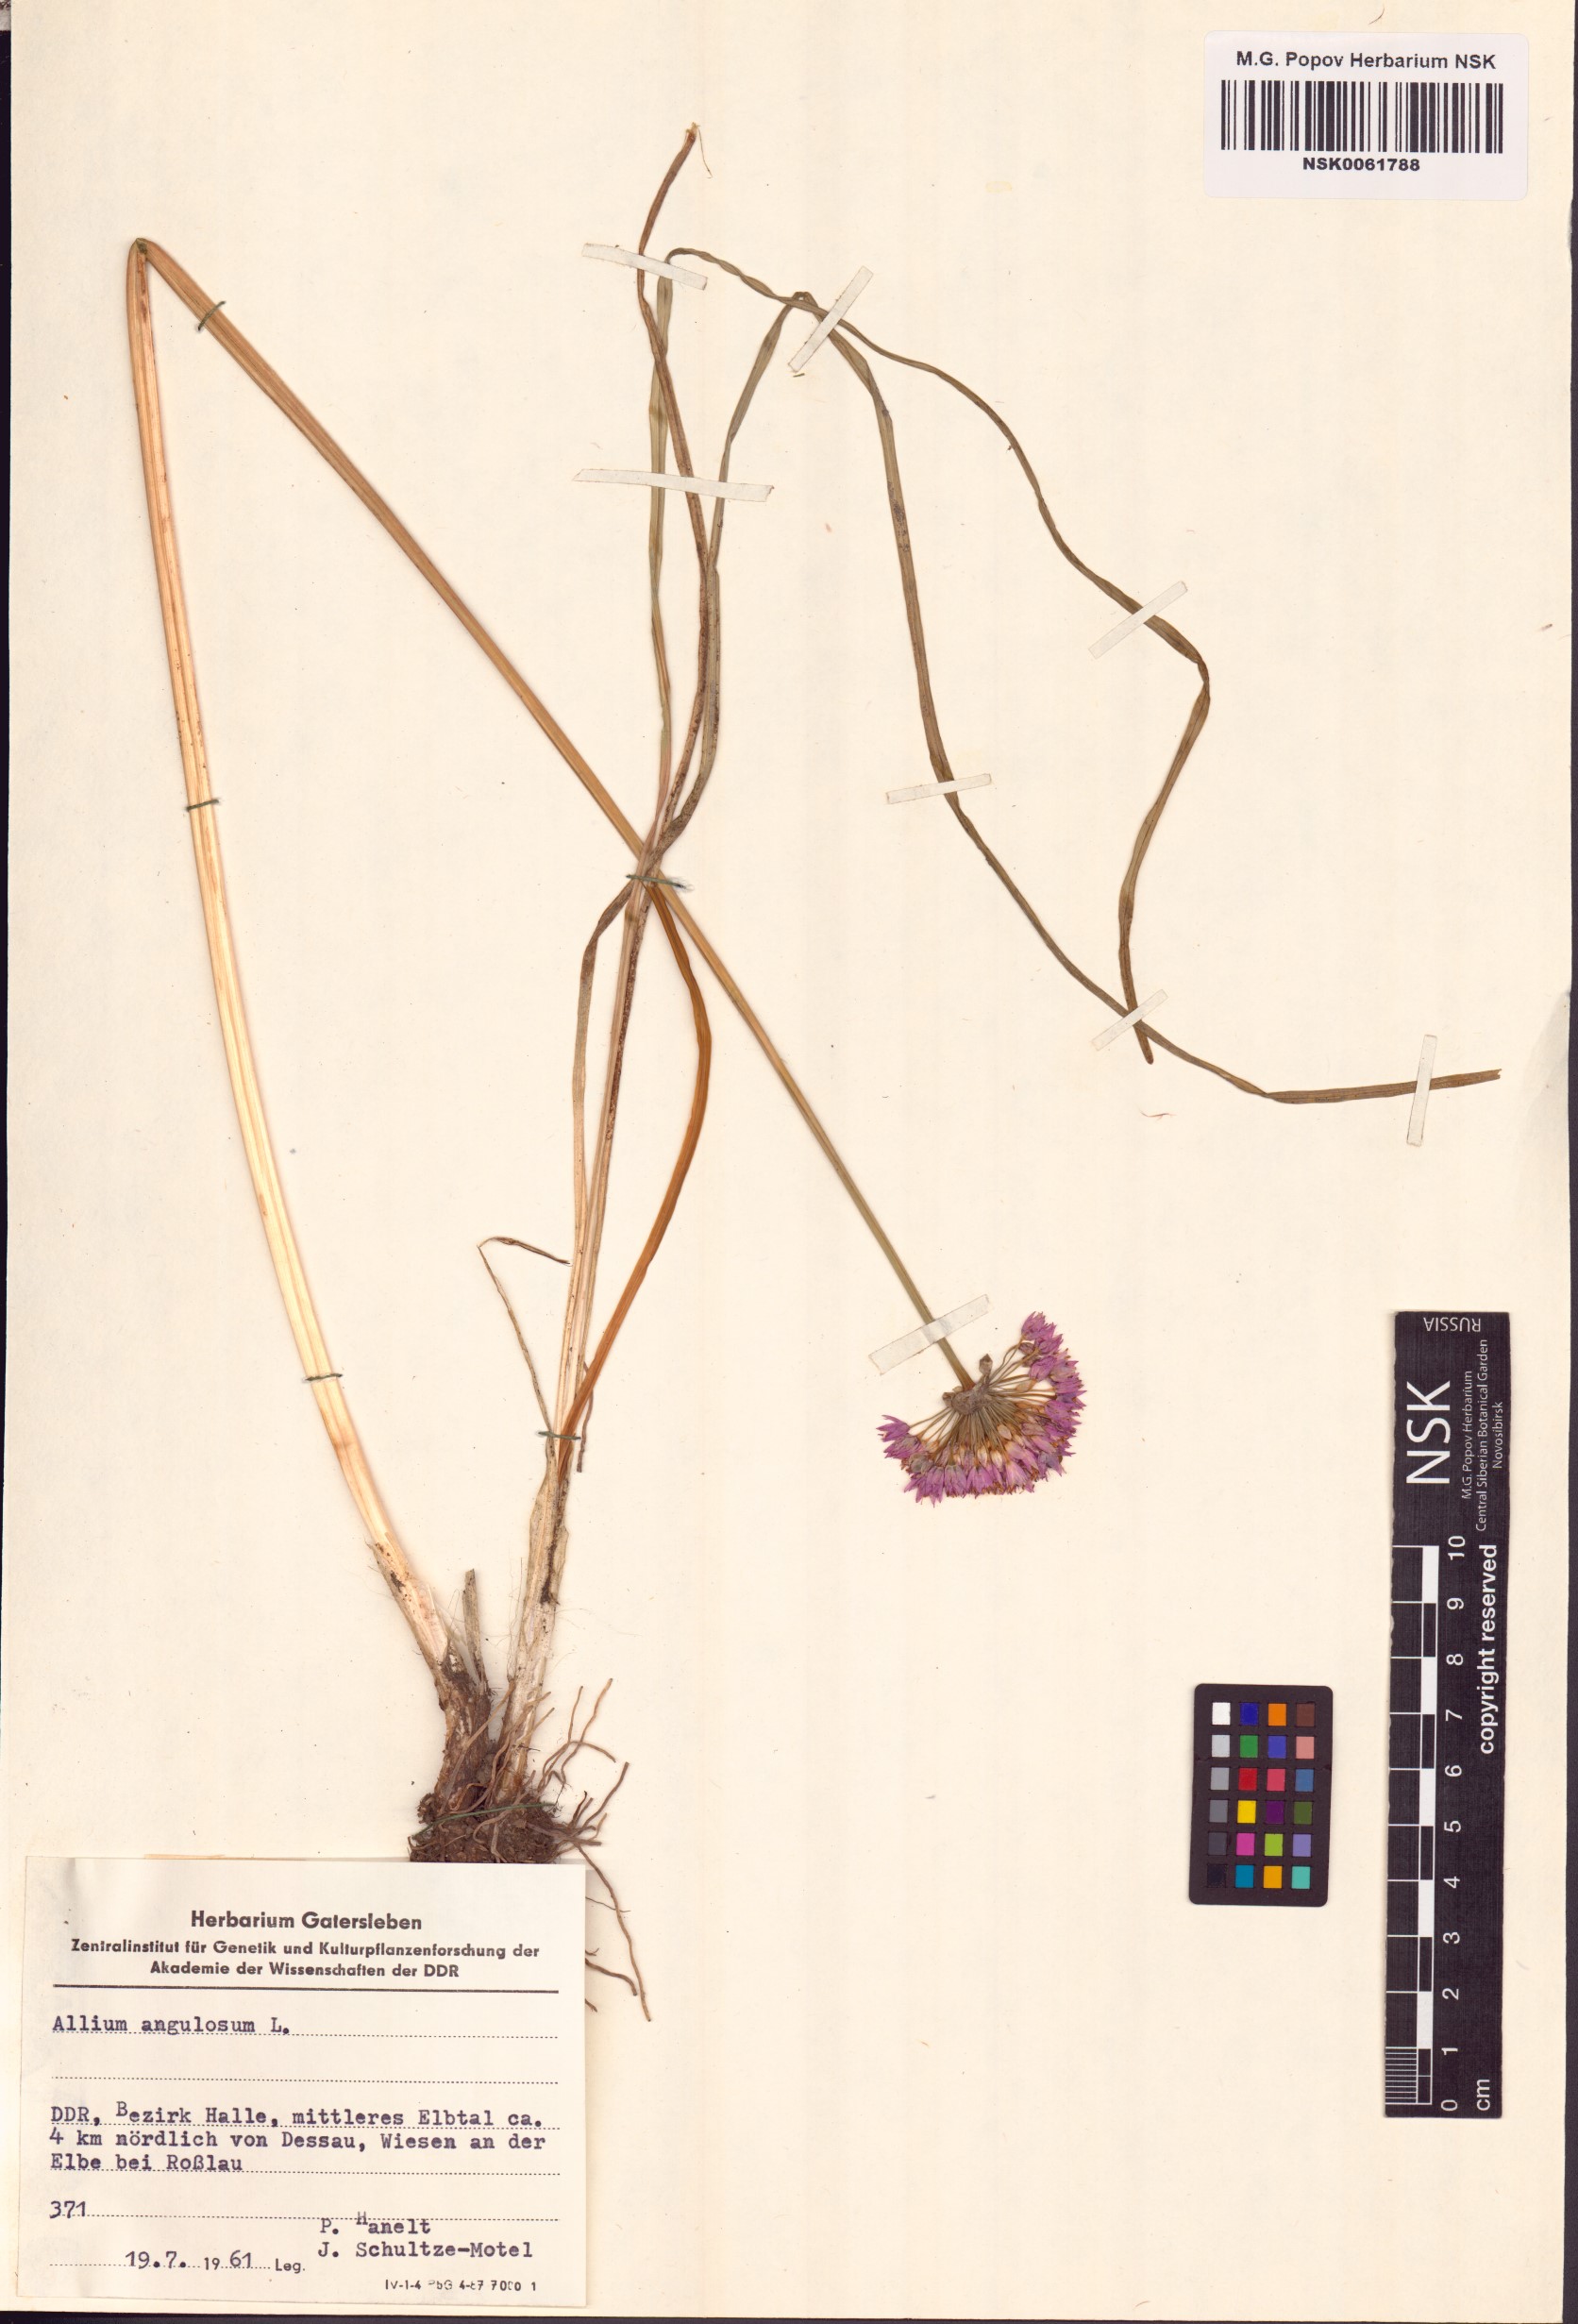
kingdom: Plantae
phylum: Tracheophyta
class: Liliopsida
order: Asparagales
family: Amaryllidaceae
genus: Allium
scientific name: Allium angulosum
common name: Mouse garlic
